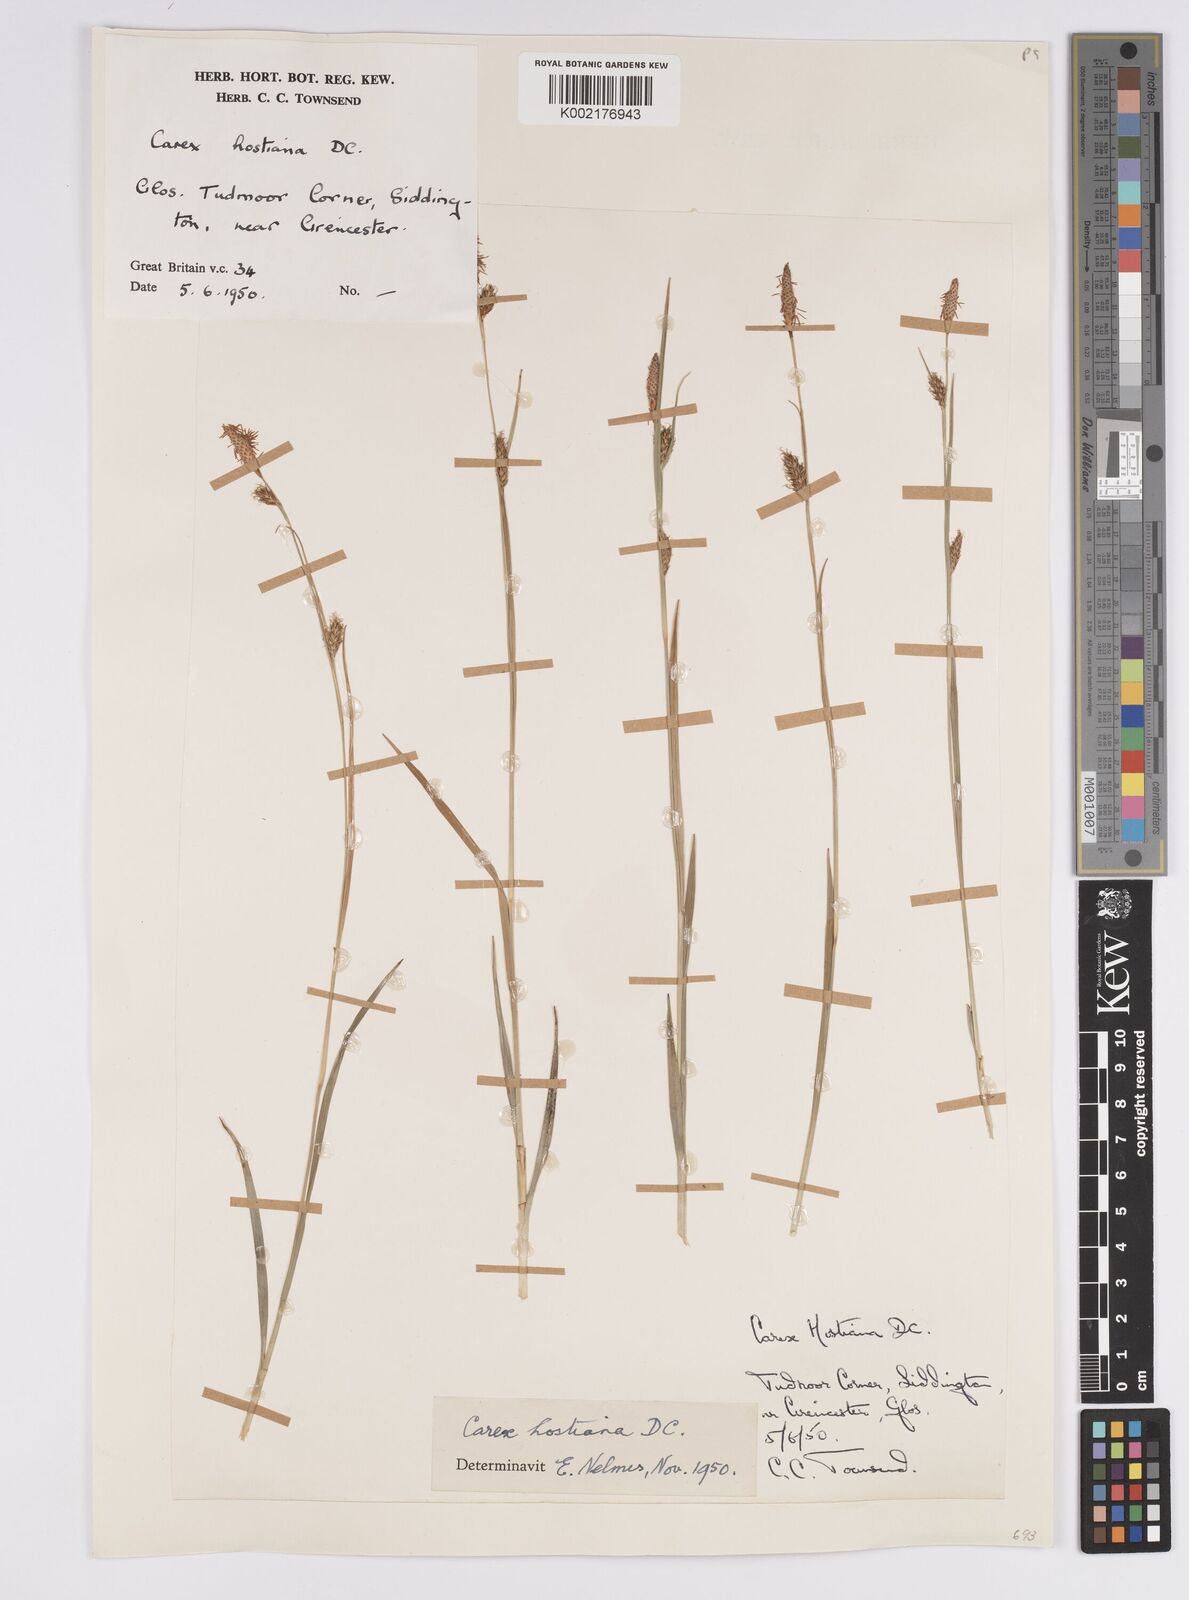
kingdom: Plantae
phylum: Tracheophyta
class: Liliopsida
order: Poales
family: Cyperaceae
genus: Carex
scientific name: Carex hostiana
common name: Tawny sedge
